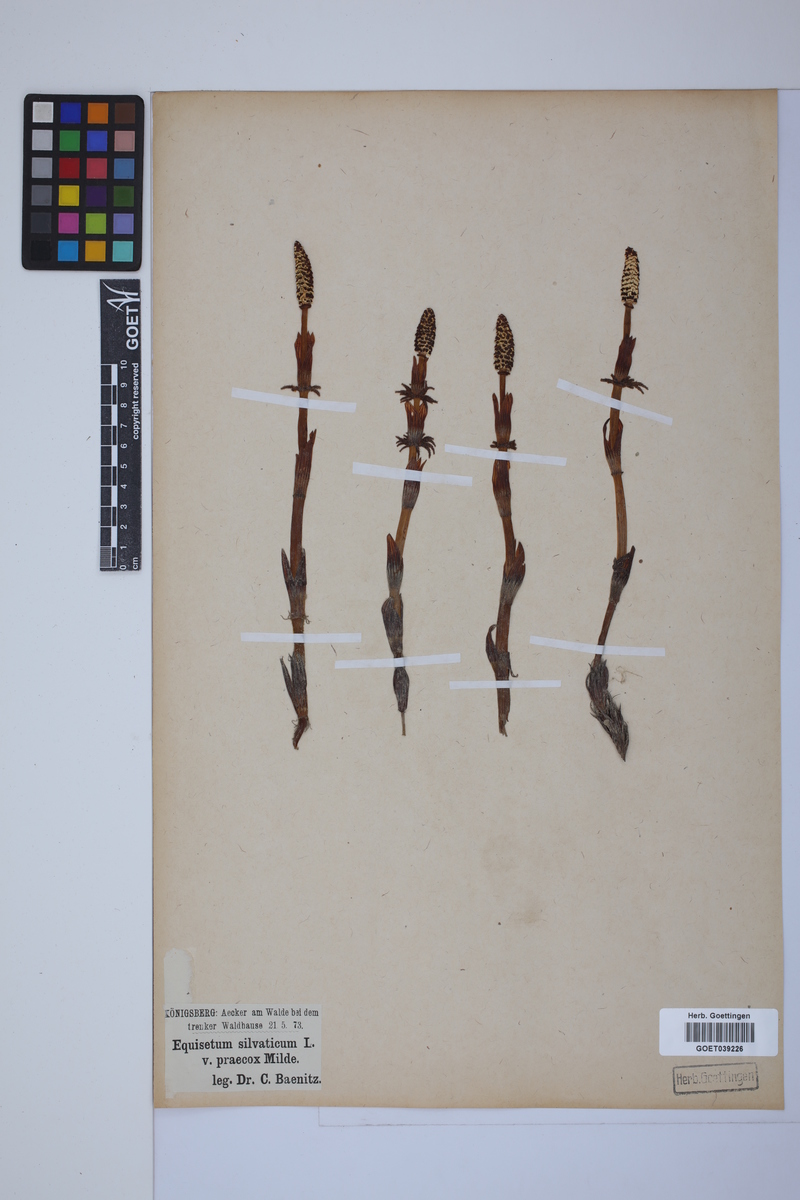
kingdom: Plantae
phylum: Tracheophyta
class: Polypodiopsida
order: Equisetales
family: Equisetaceae
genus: Equisetum
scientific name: Equisetum sylvaticum
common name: Wood horsetail
